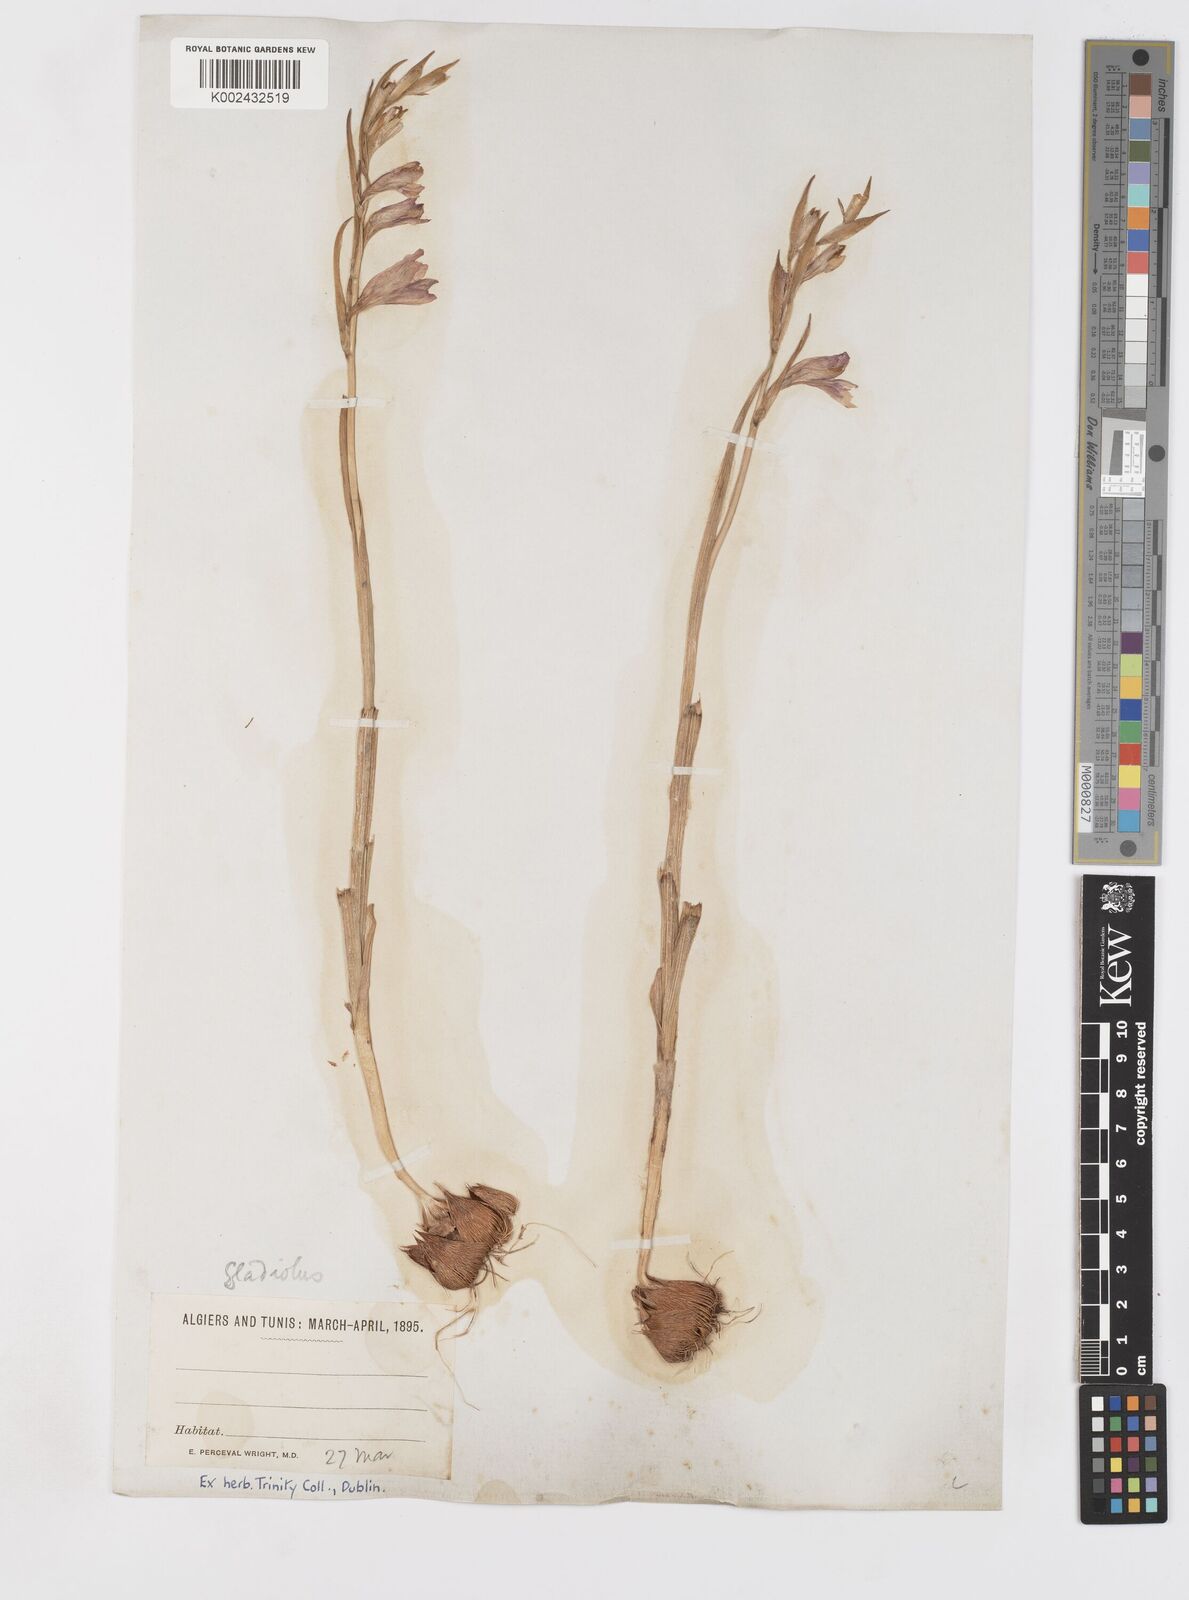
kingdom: Plantae
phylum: Tracheophyta
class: Liliopsida
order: Asparagales
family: Iridaceae
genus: Gladiolus
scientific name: Gladiolus
